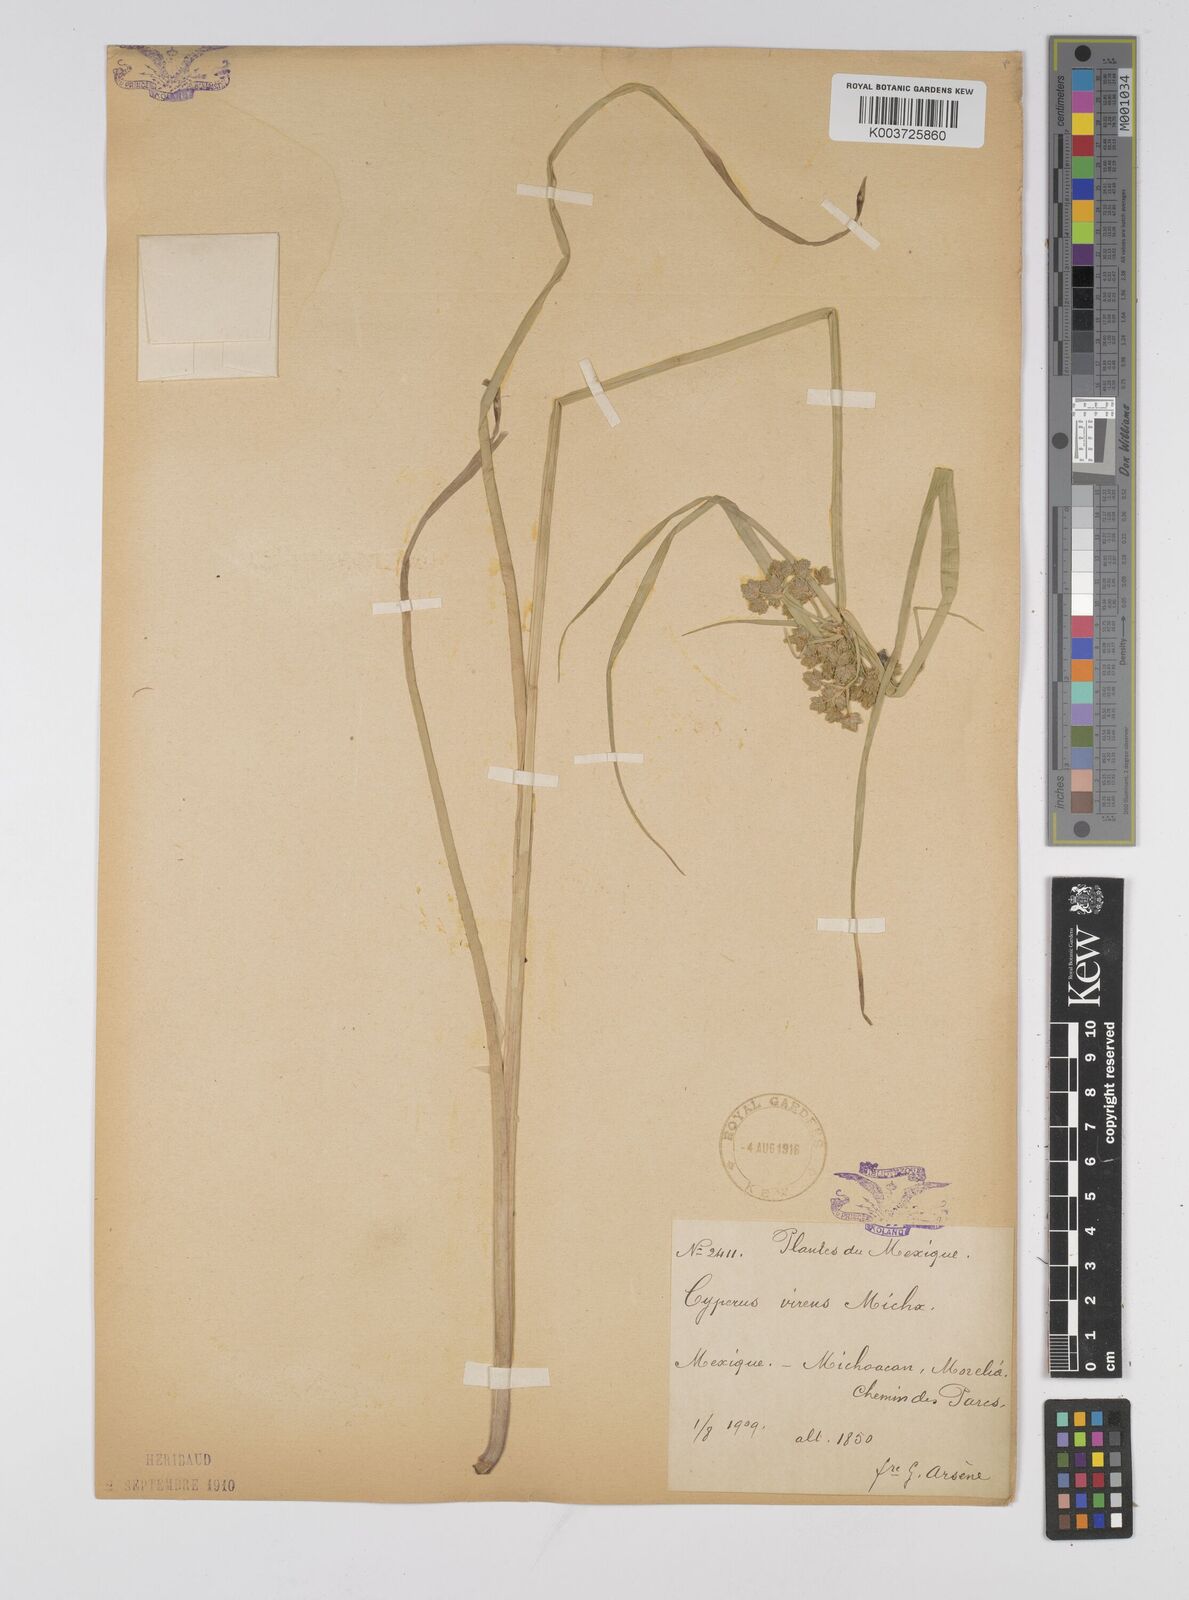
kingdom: Plantae
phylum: Tracheophyta
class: Liliopsida
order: Poales
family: Cyperaceae
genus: Cyperus
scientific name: Cyperus virens
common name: Green flatsedge
